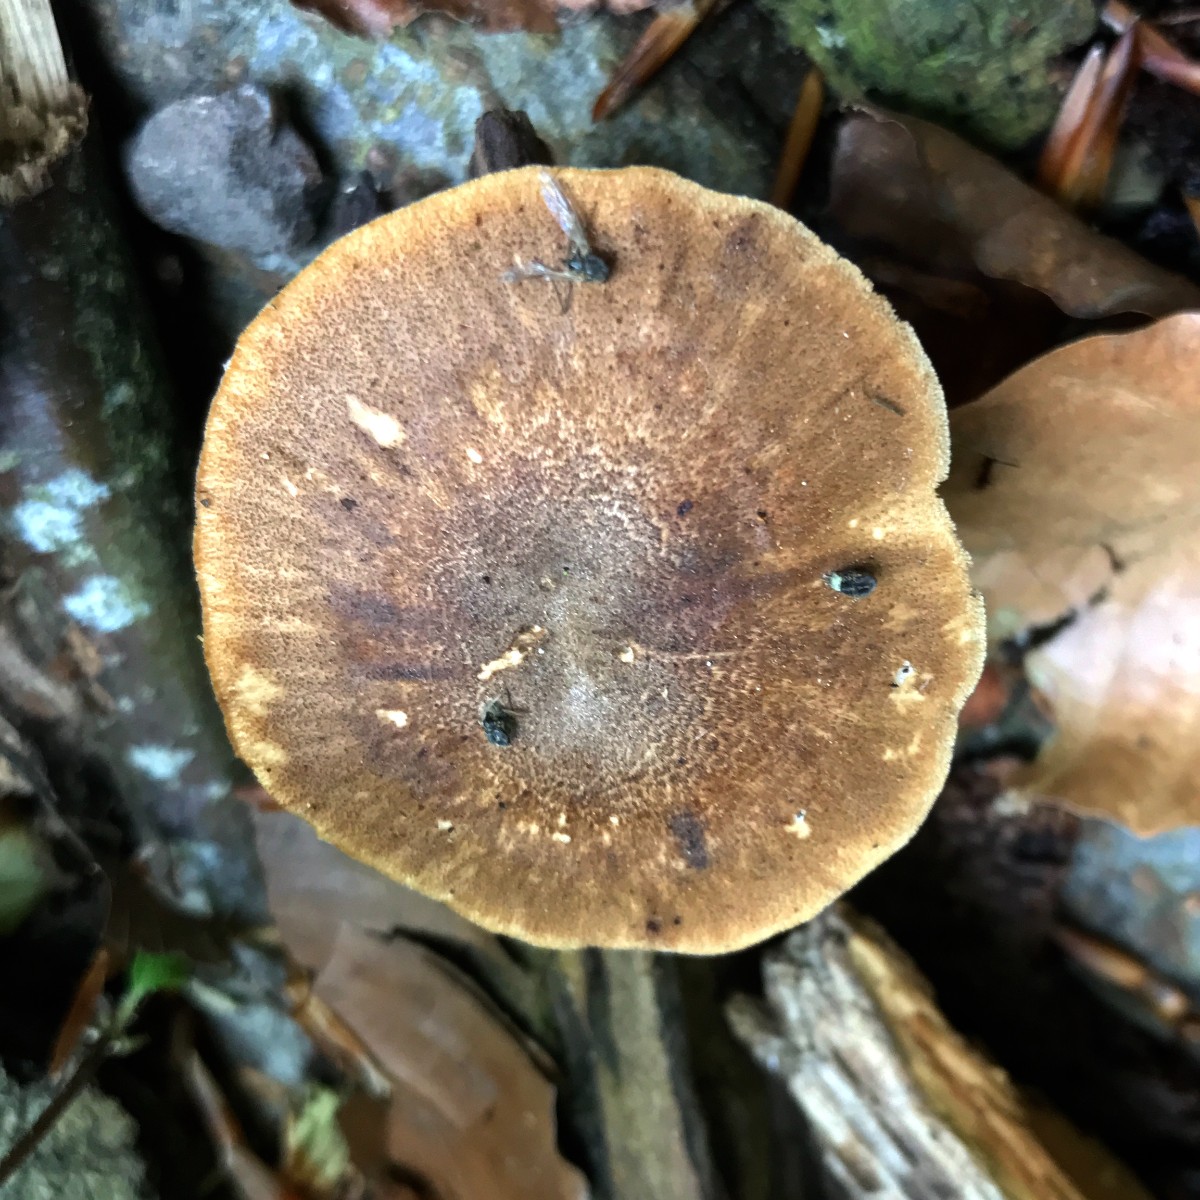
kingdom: Fungi
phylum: Basidiomycota
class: Agaricomycetes
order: Polyporales
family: Polyporaceae
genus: Lentinus
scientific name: Lentinus substrictus
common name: forårs-stilkporesvamp
